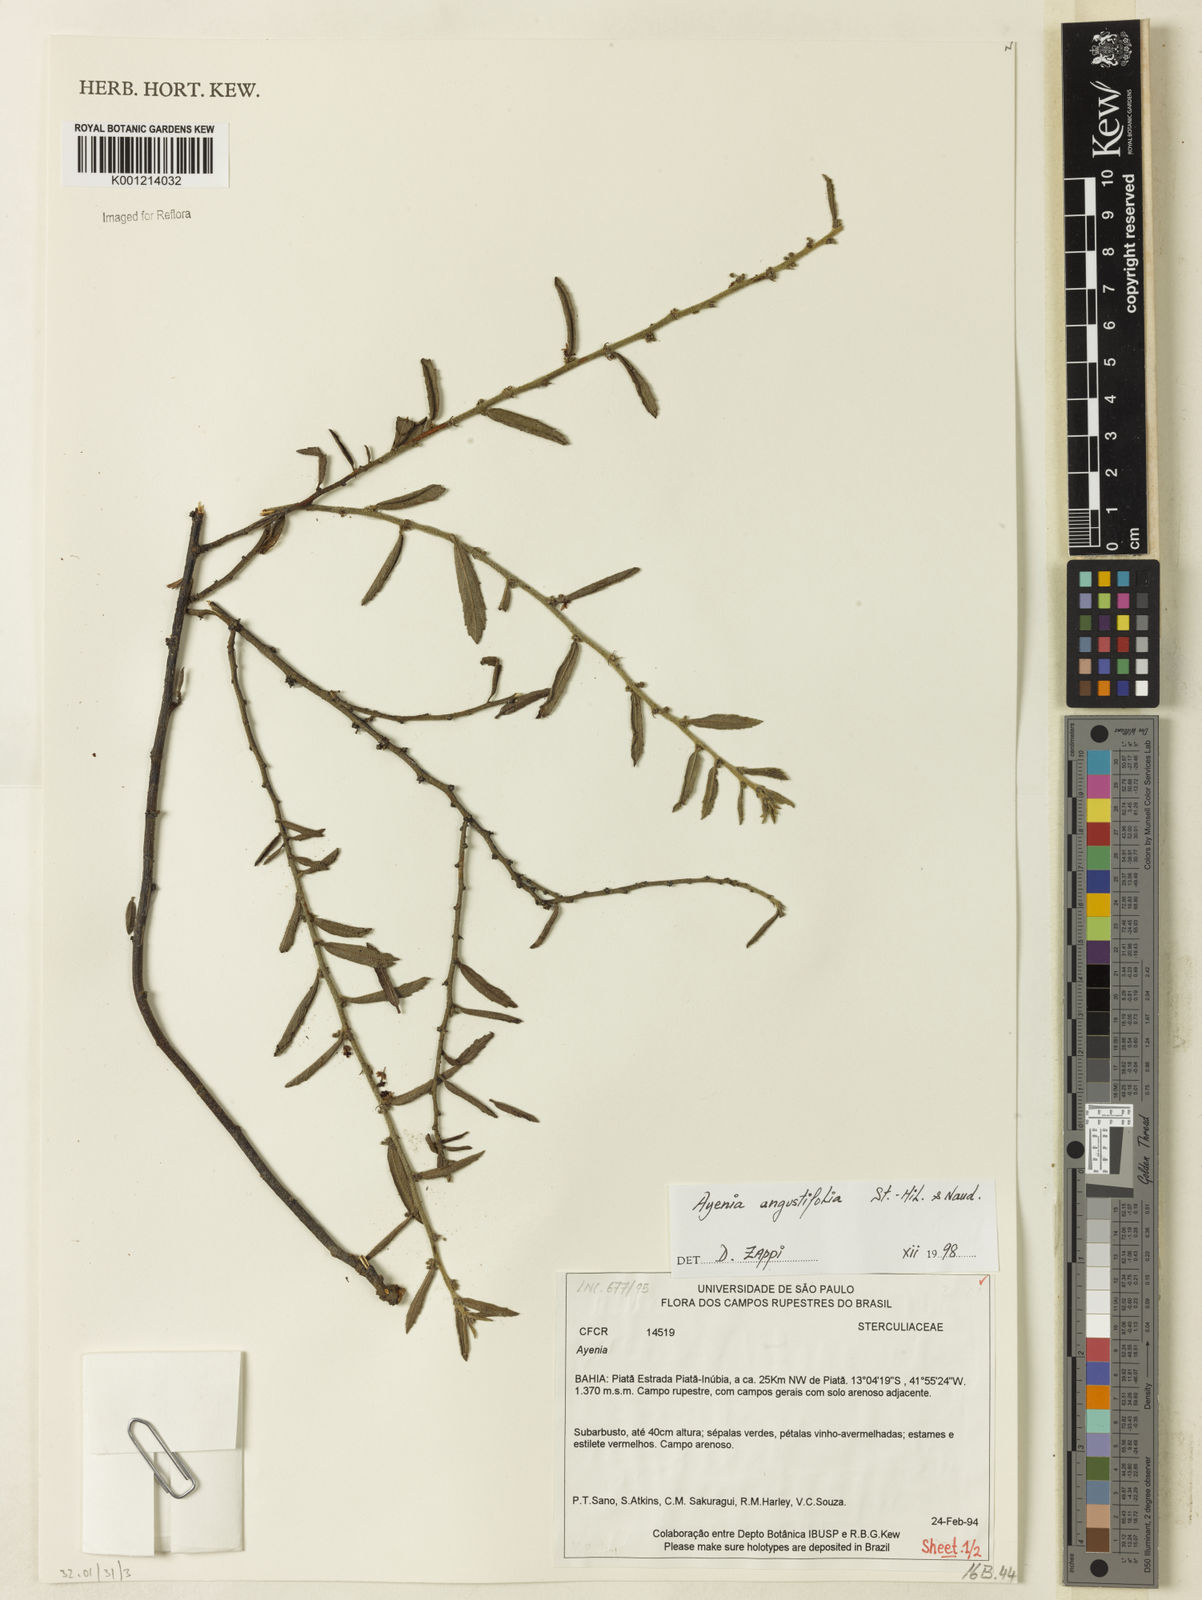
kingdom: Plantae
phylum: Tracheophyta
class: Magnoliopsida
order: Malvales
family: Malvaceae
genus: Ayenia
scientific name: Ayenia angustifolia
